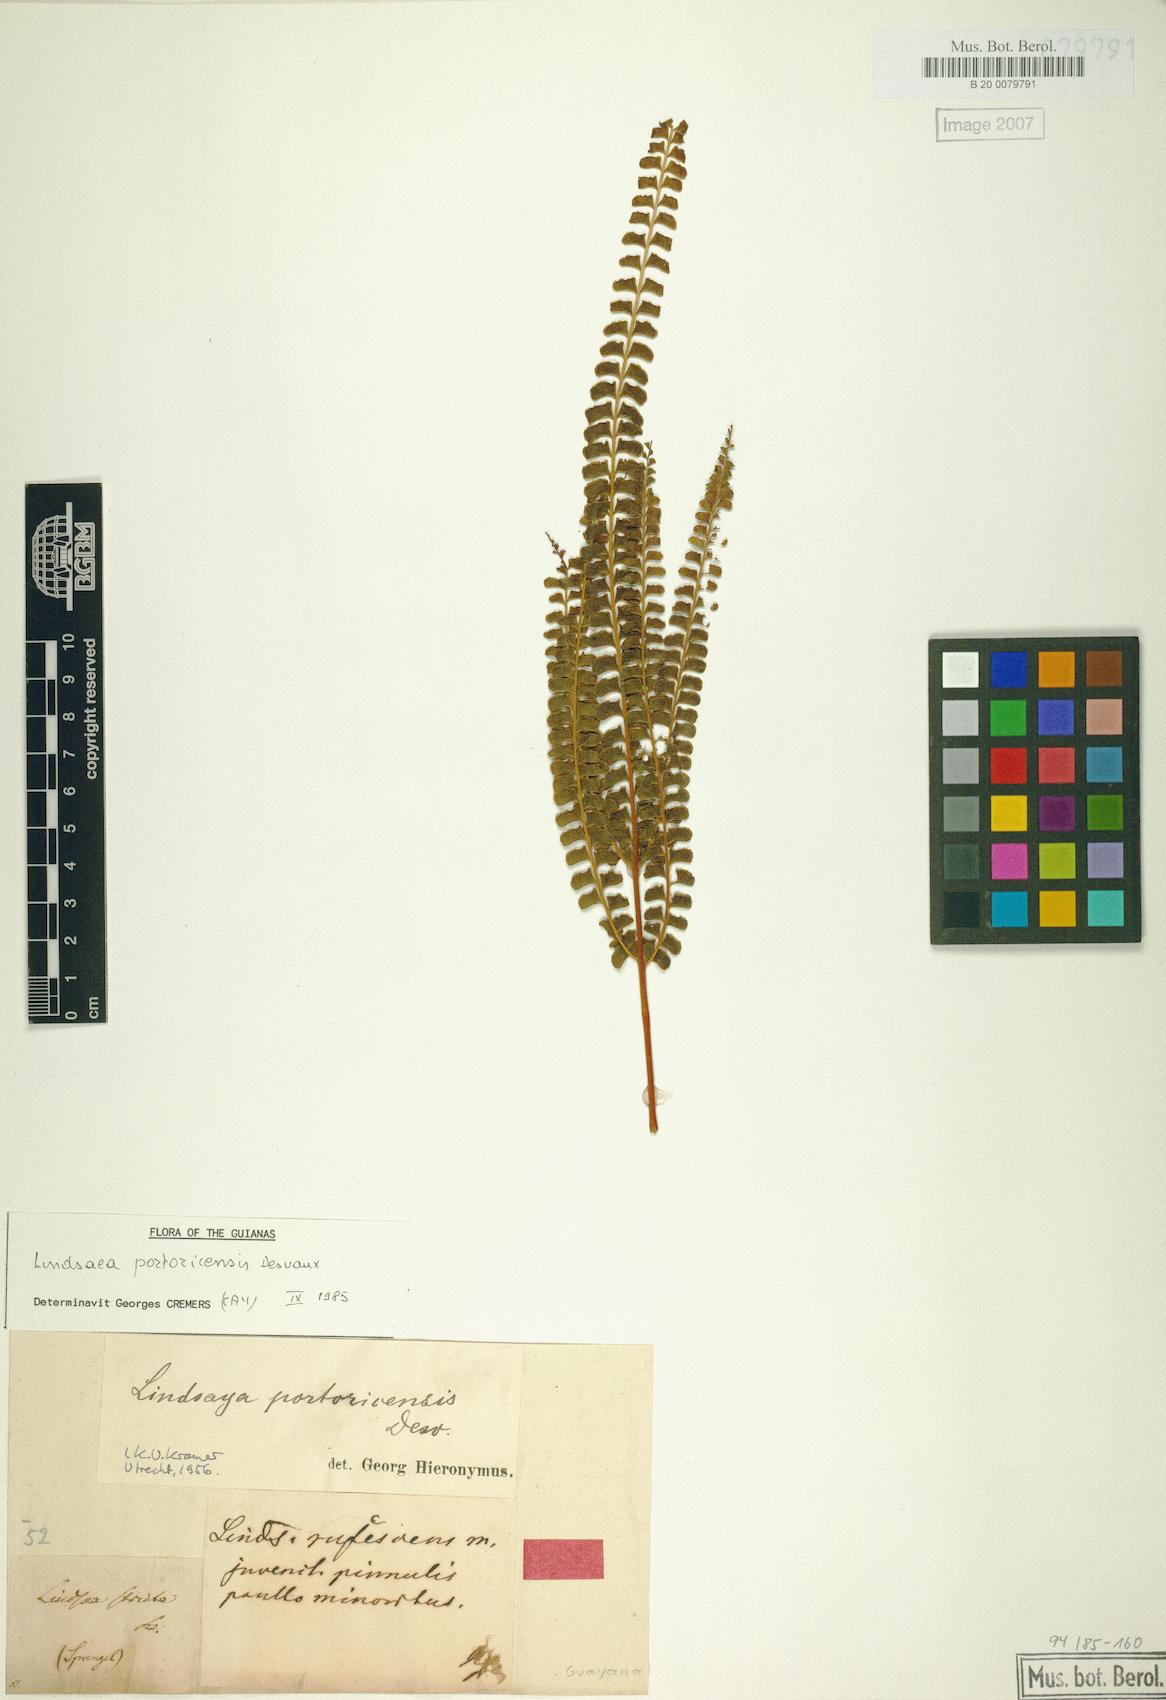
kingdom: Plantae
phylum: Tracheophyta
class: Polypodiopsida
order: Polypodiales
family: Lindsaeaceae
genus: Lindsaea
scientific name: Lindsaea portoricensis
